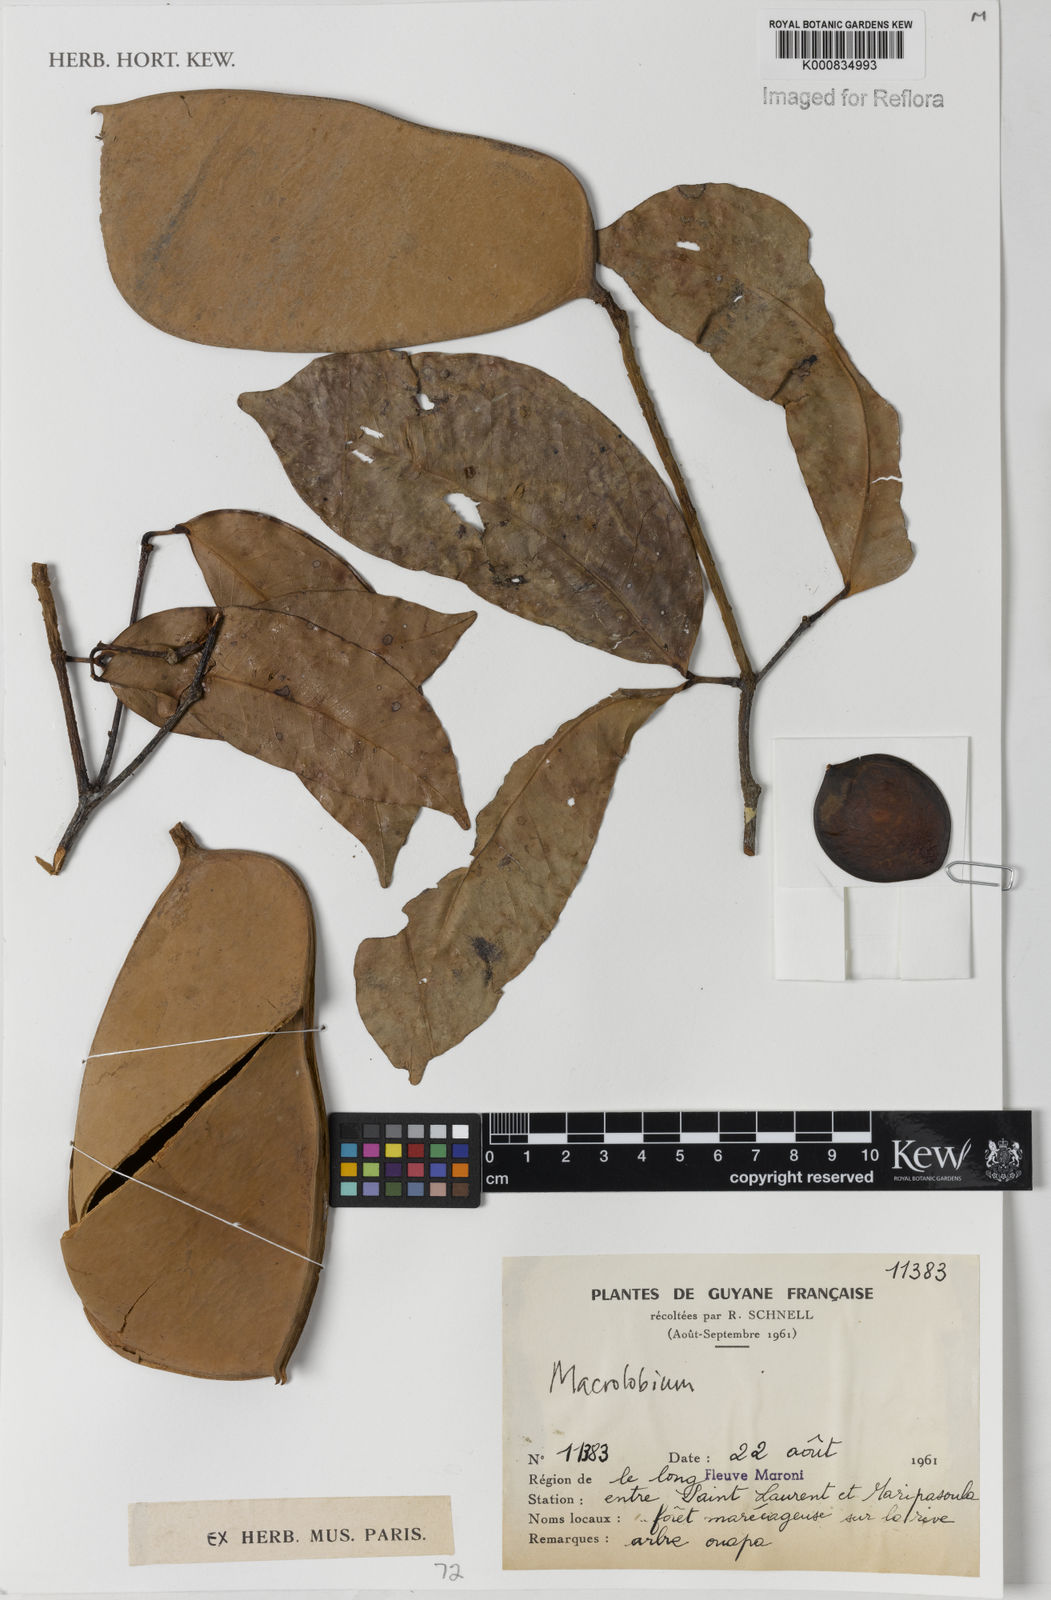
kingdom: Plantae
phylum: Tracheophyta
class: Magnoliopsida
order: Fabales
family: Fabaceae
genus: Macrolobium
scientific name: Macrolobium
